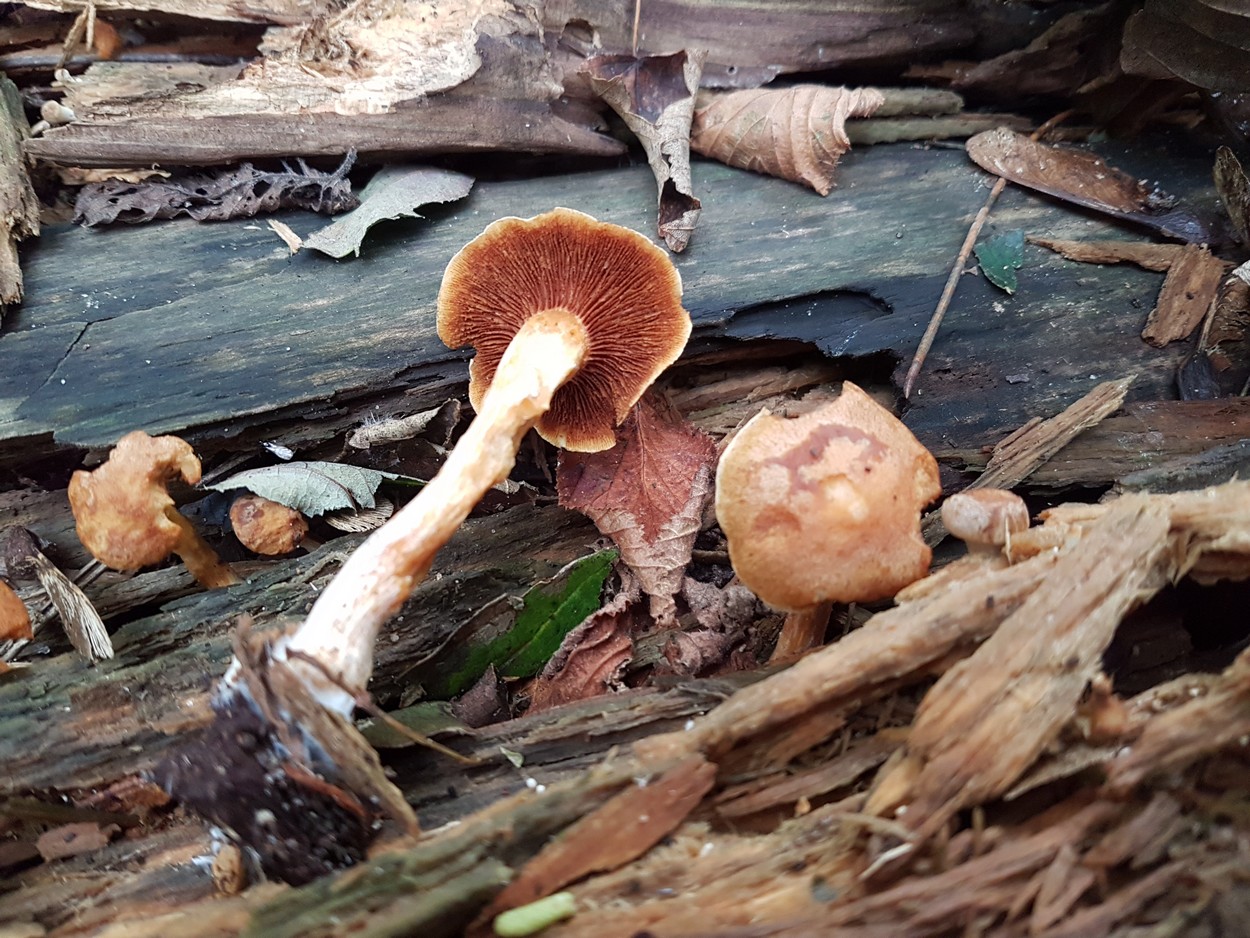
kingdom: Fungi
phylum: Basidiomycota
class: Agaricomycetes
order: Agaricales
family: Hymenogastraceae
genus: Gymnopilus
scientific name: Gymnopilus penetrans
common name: plettet flammehat
